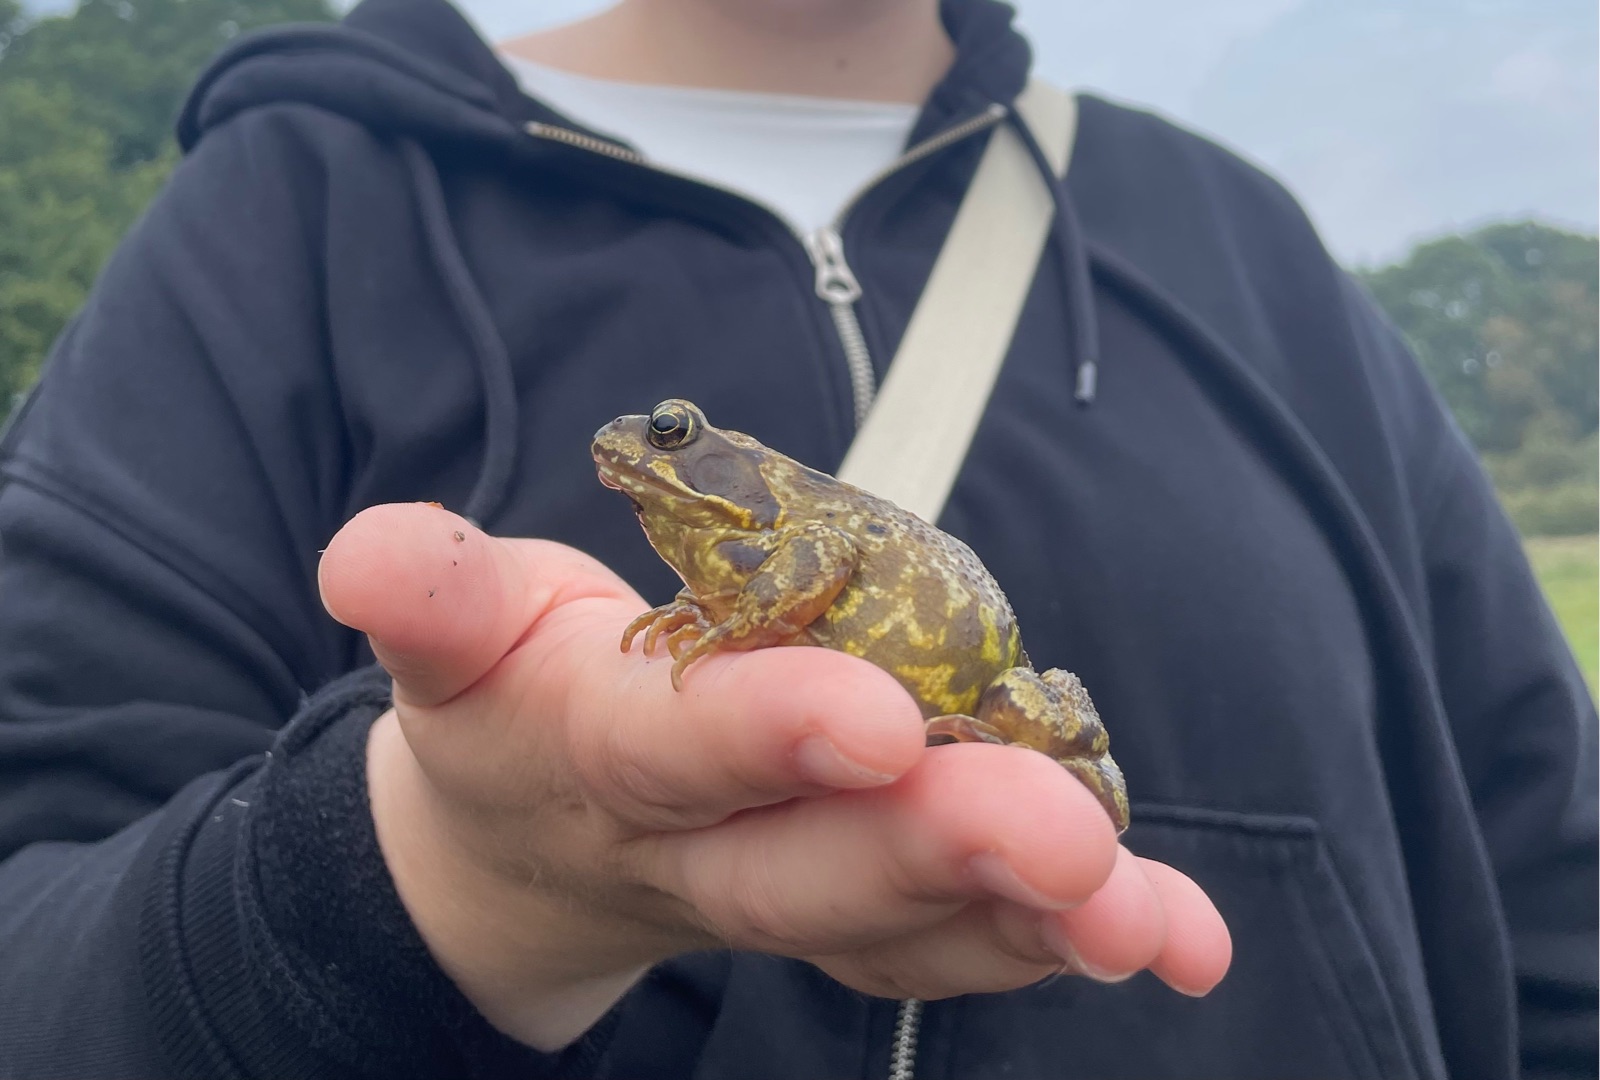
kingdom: Animalia
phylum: Chordata
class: Amphibia
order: Anura
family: Ranidae
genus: Rana
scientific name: Rana temporaria
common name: Butsnudet frø
